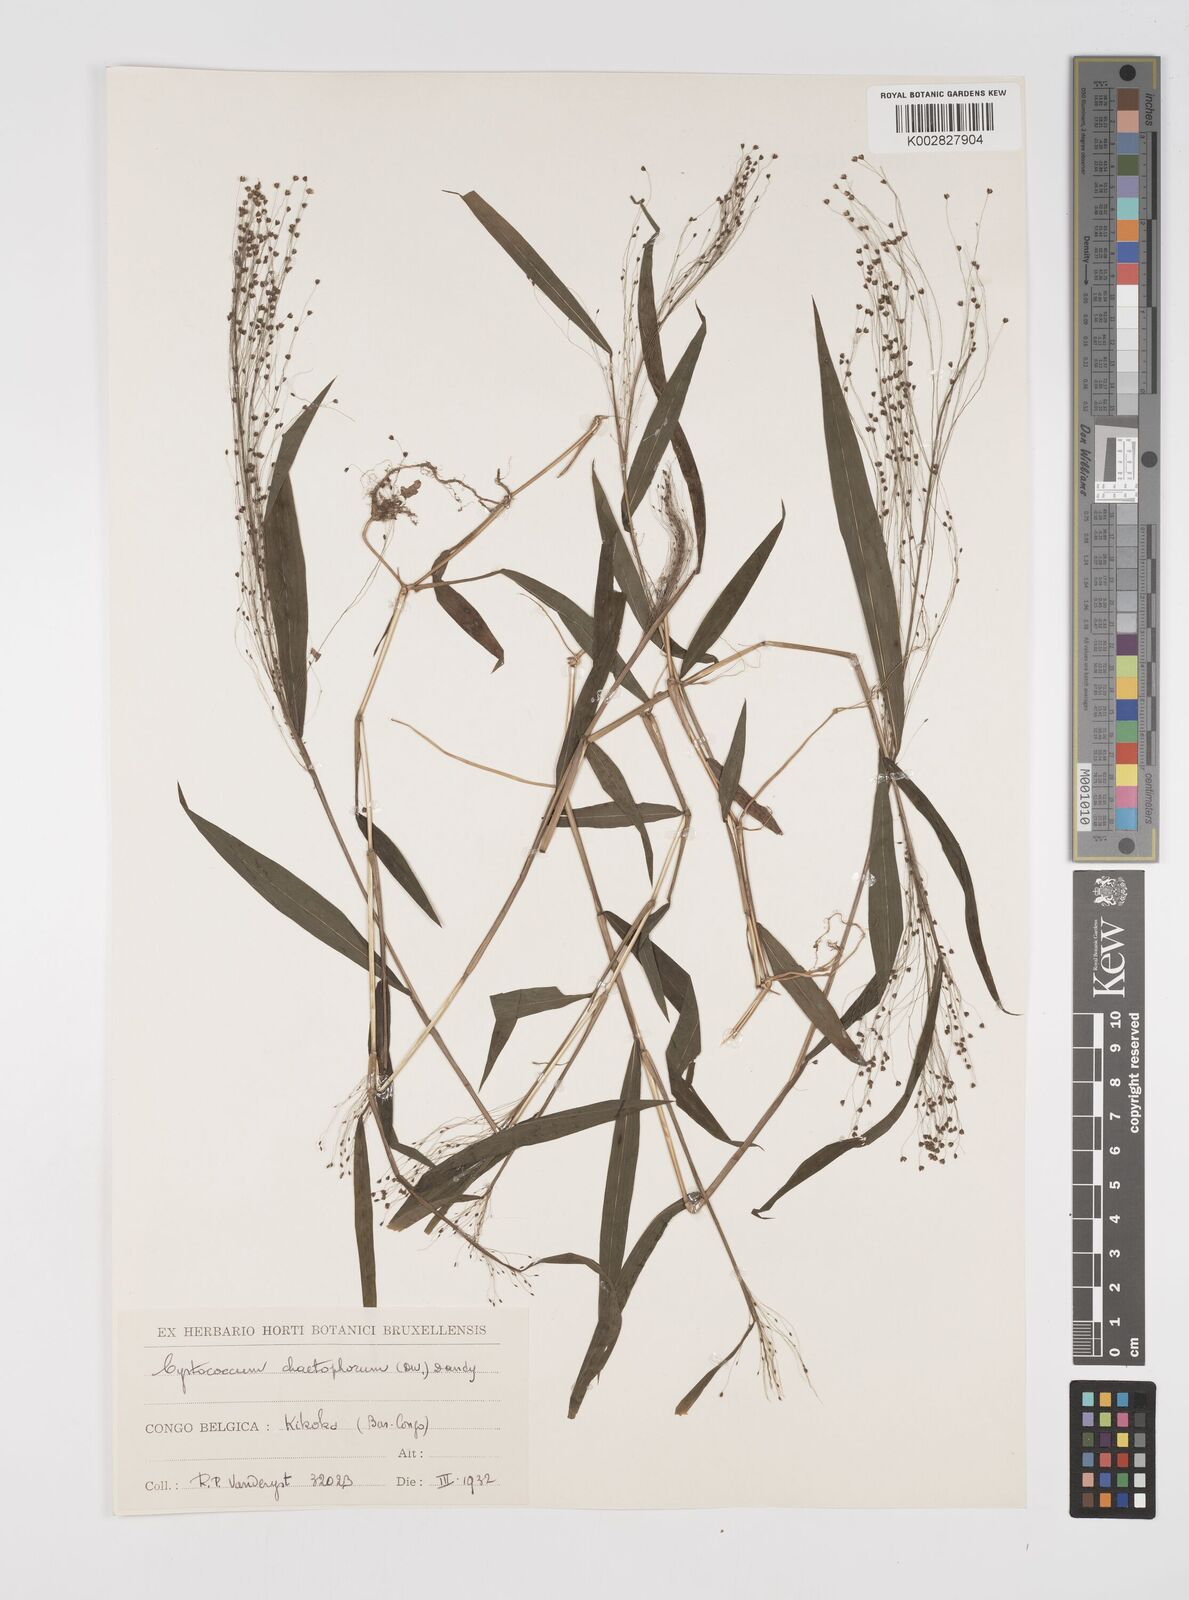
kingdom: Plantae
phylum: Tracheophyta
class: Liliopsida
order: Poales
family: Poaceae
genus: Cyrtococcum
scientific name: Cyrtococcum chaetophoron
